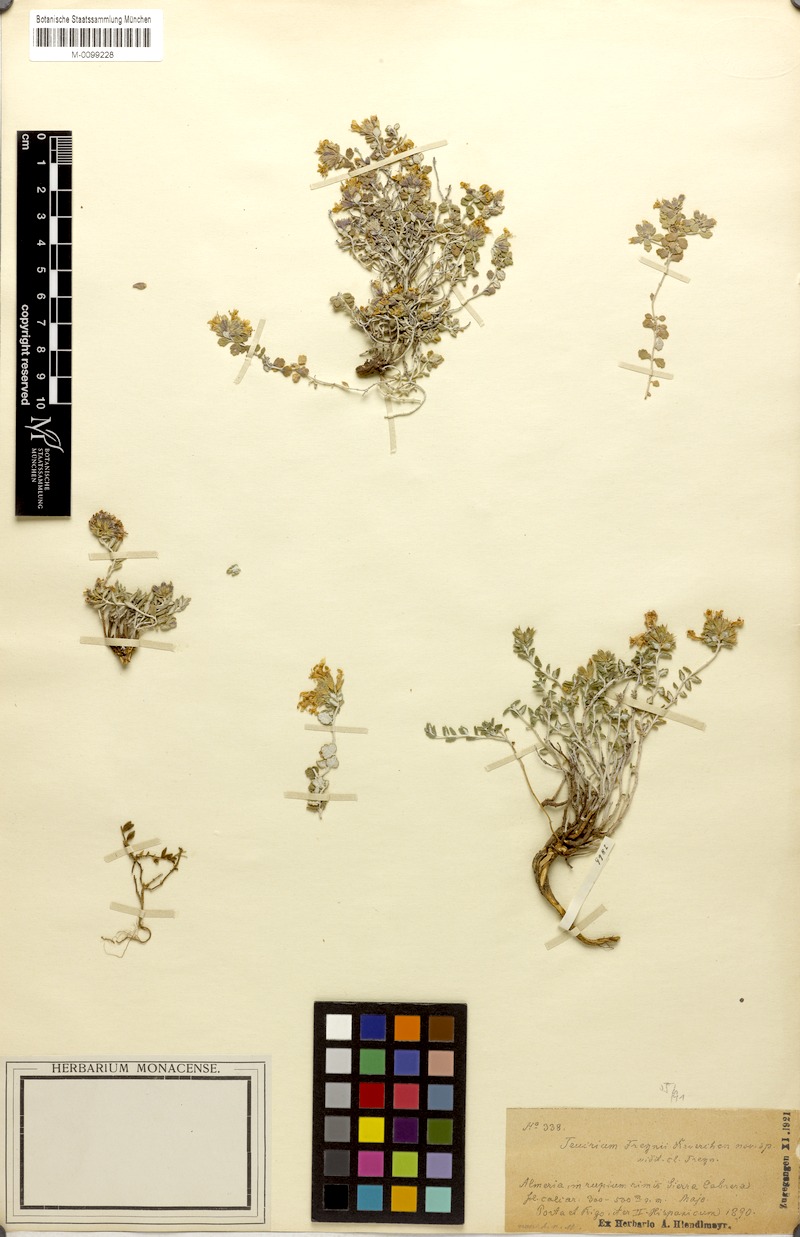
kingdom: Plantae
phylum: Tracheophyta
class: Magnoliopsida
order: Lamiales
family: Lamiaceae
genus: Teucrium
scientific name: Teucrium freynii
